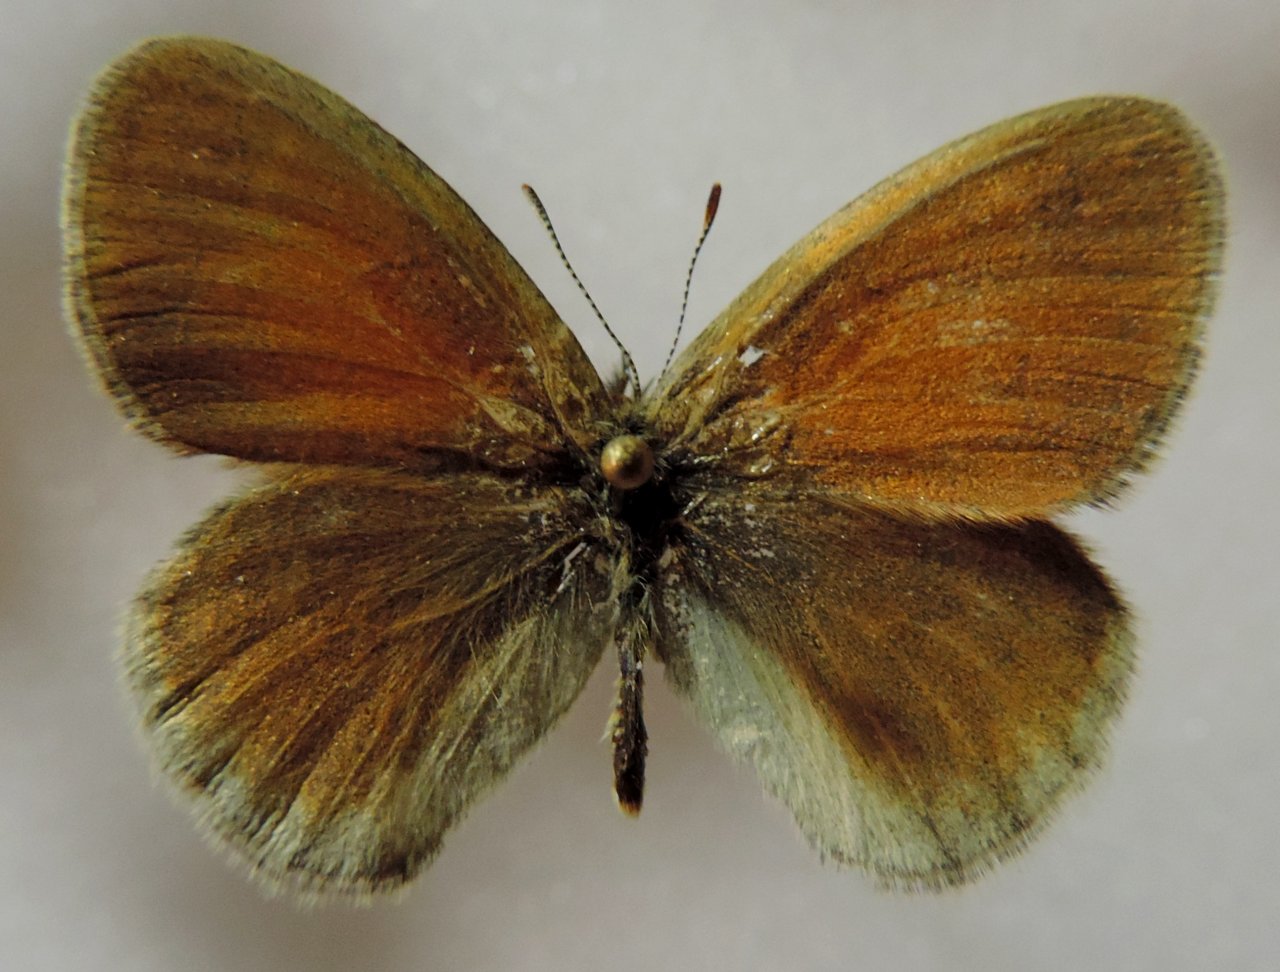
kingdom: Animalia
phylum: Arthropoda
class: Insecta
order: Lepidoptera
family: Nymphalidae
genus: Coenonympha
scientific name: Coenonympha tullia
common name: Large Heath
